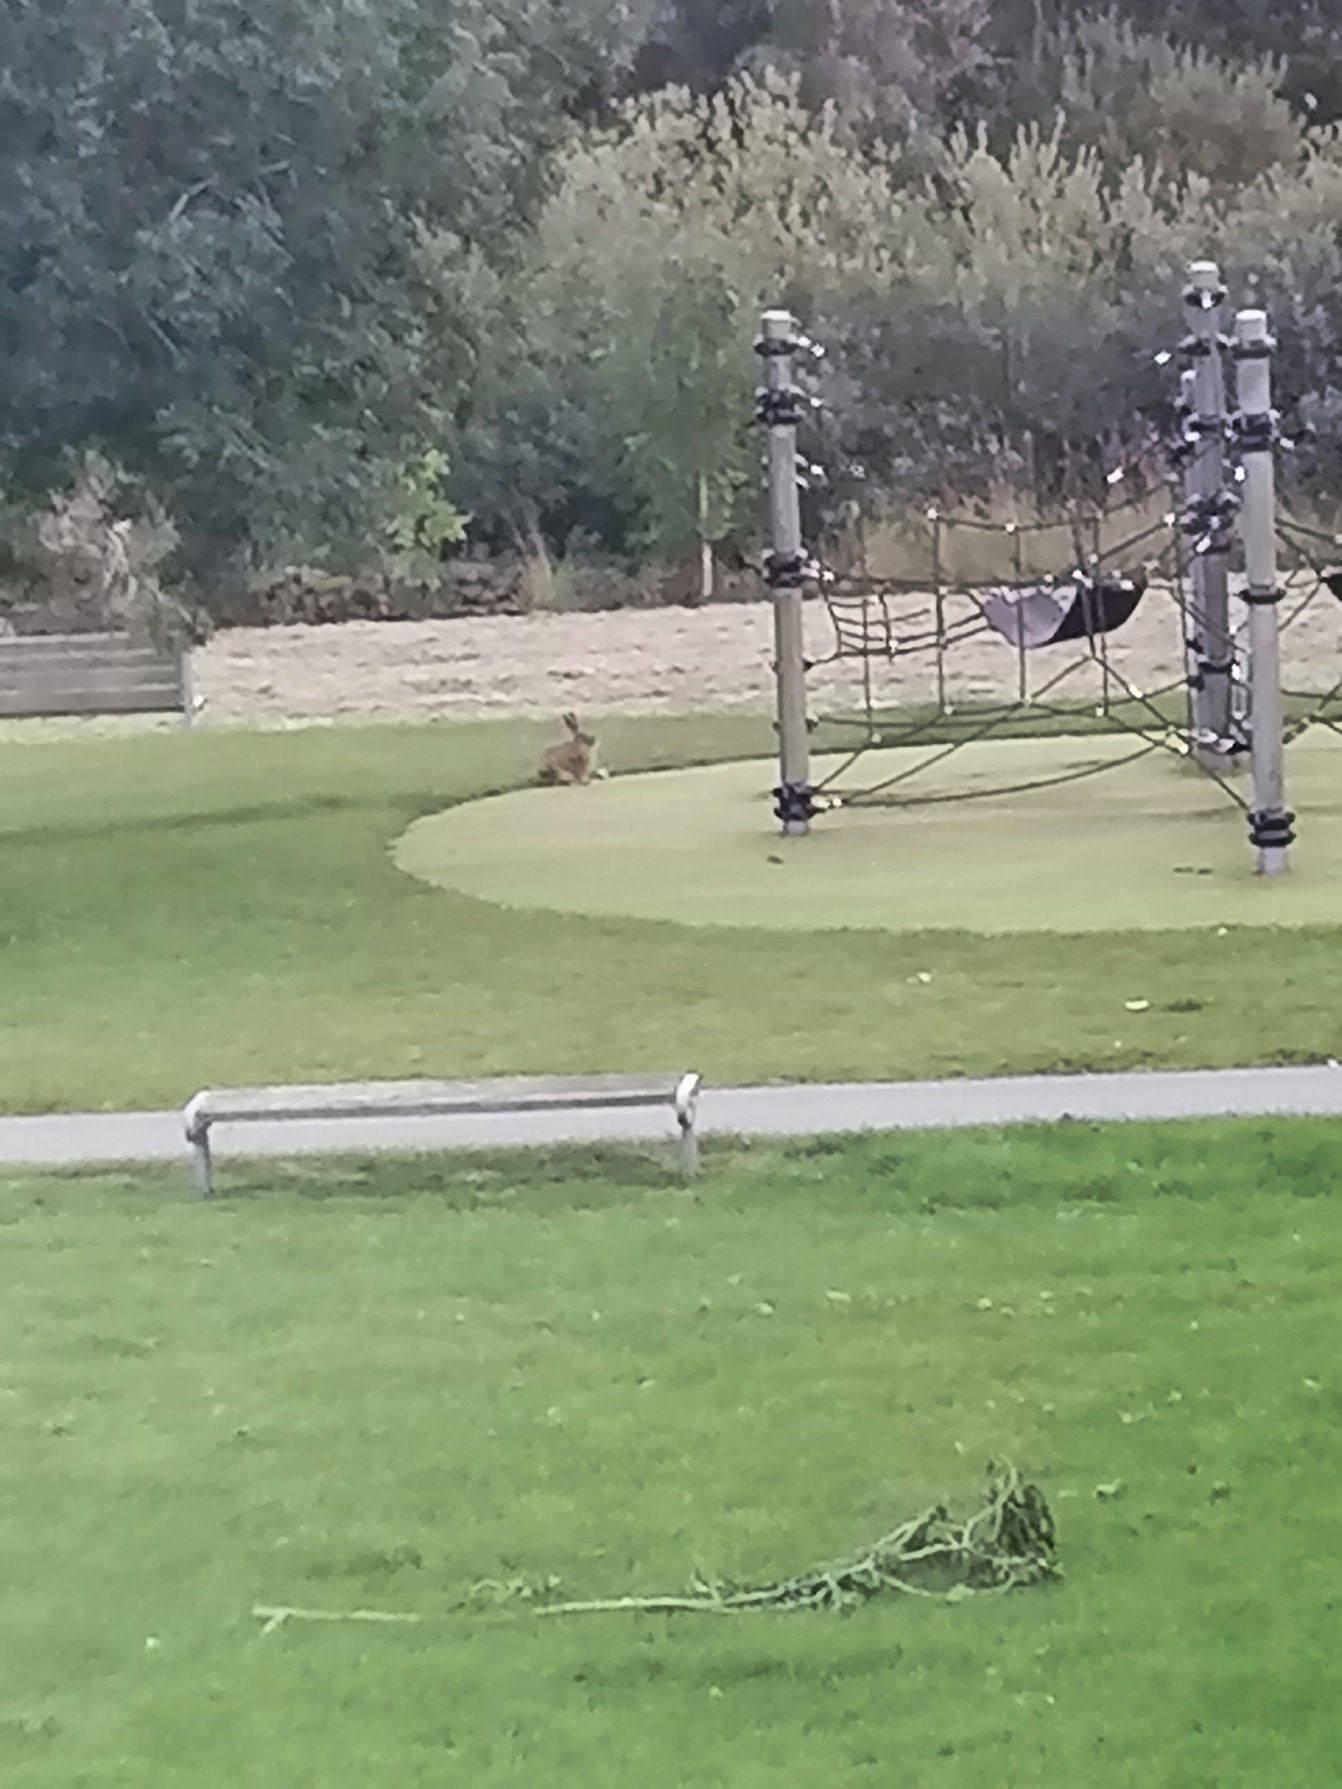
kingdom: Animalia
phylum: Chordata
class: Mammalia
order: Lagomorpha
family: Leporidae
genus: Lepus
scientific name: Lepus europaeus
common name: Hare
